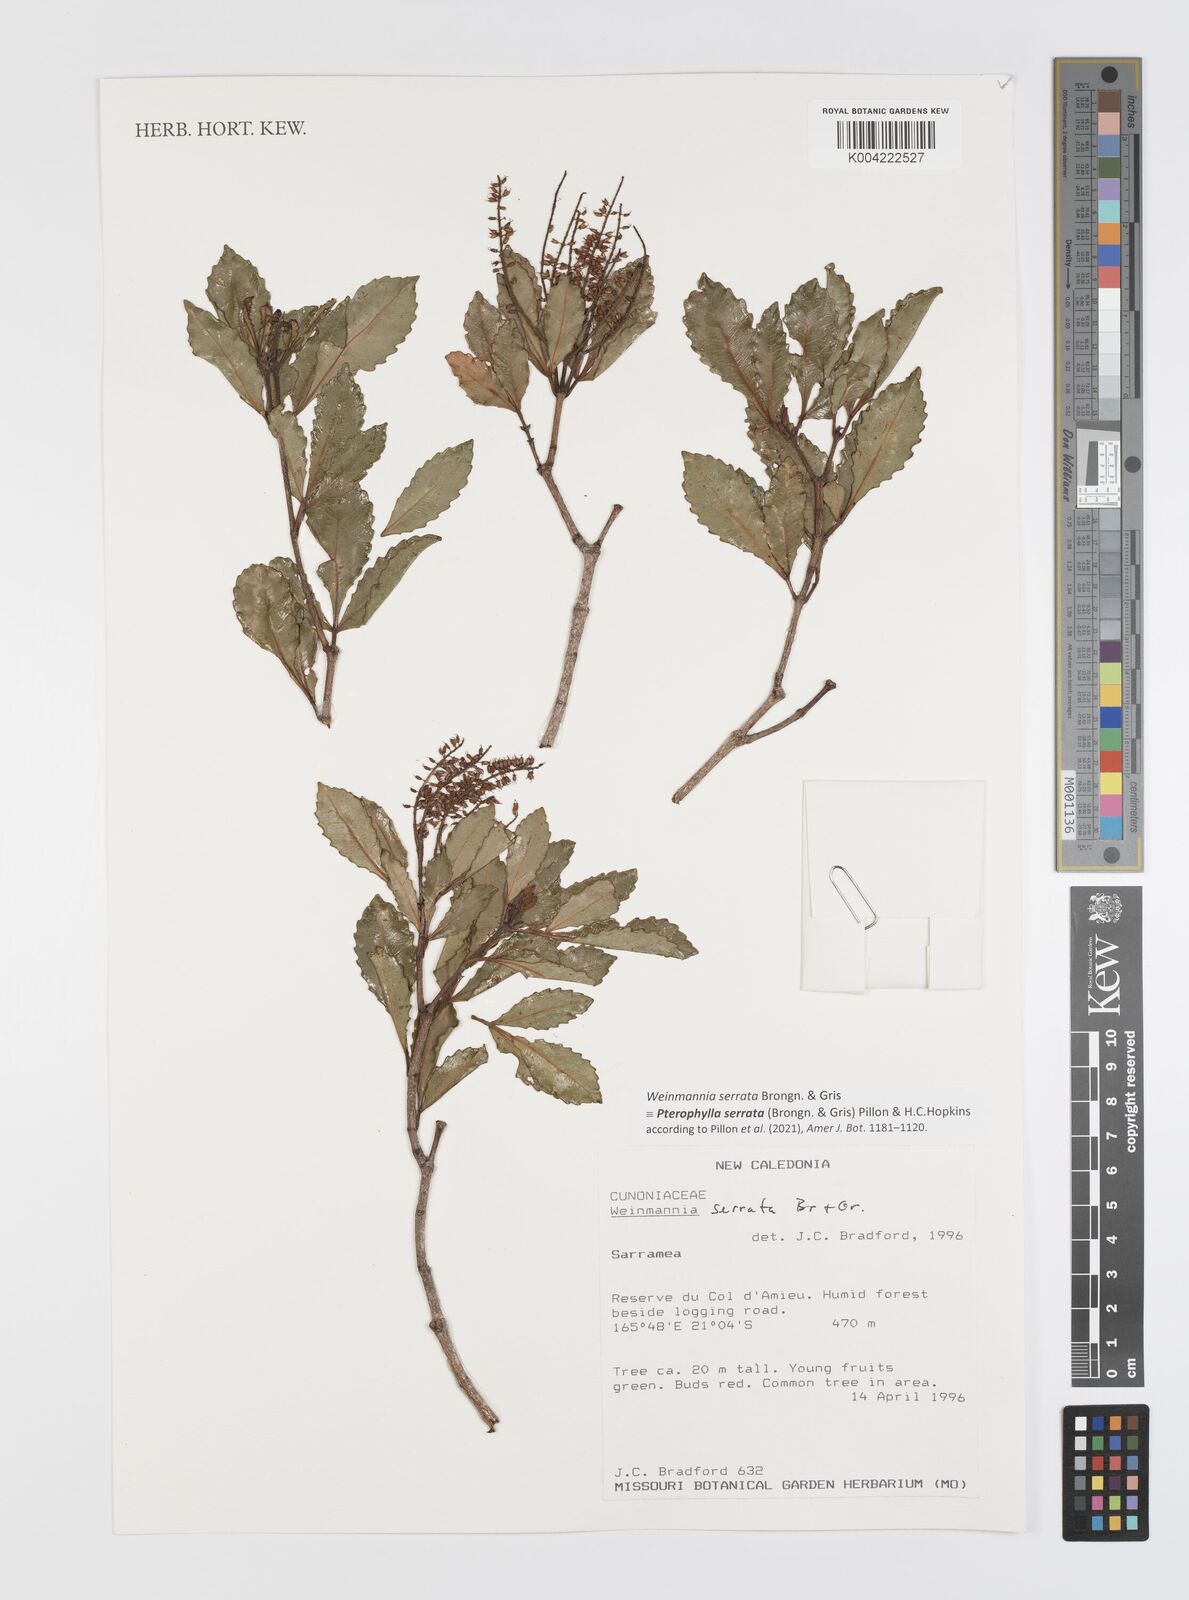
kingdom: Plantae
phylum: Tracheophyta
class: Magnoliopsida
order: Oxalidales
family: Cunoniaceae
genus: Pterophylla
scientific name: Pterophylla serrata
